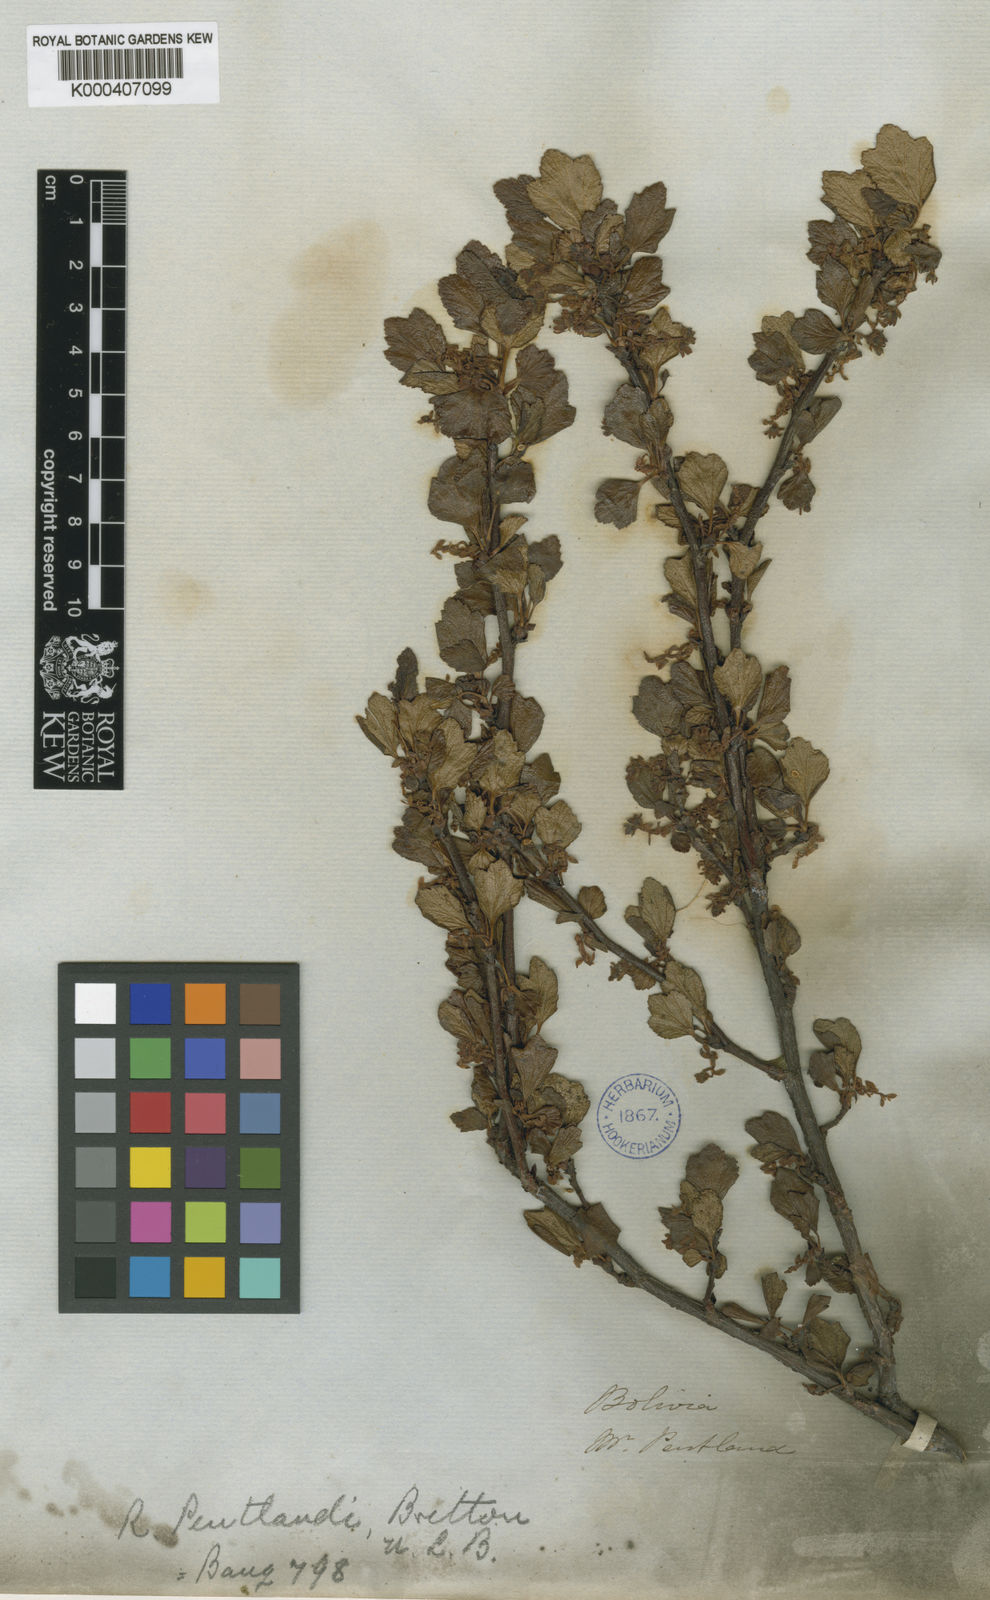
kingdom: Plantae
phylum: Tracheophyta
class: Magnoliopsida
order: Saxifragales
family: Grossulariaceae
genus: Ribes
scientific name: Ribes pentlandii
